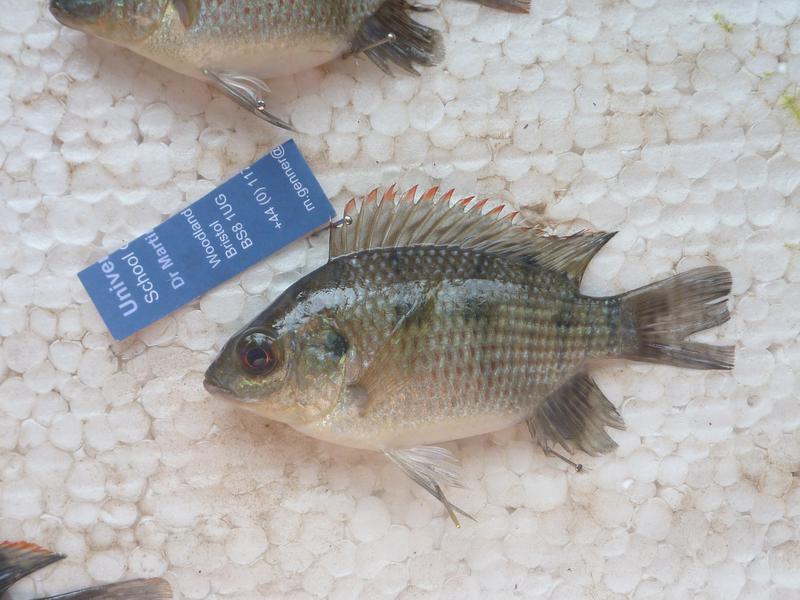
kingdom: Animalia
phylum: Chordata
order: Perciformes
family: Cichlidae
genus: Oreochromis
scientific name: Oreochromis upembae
